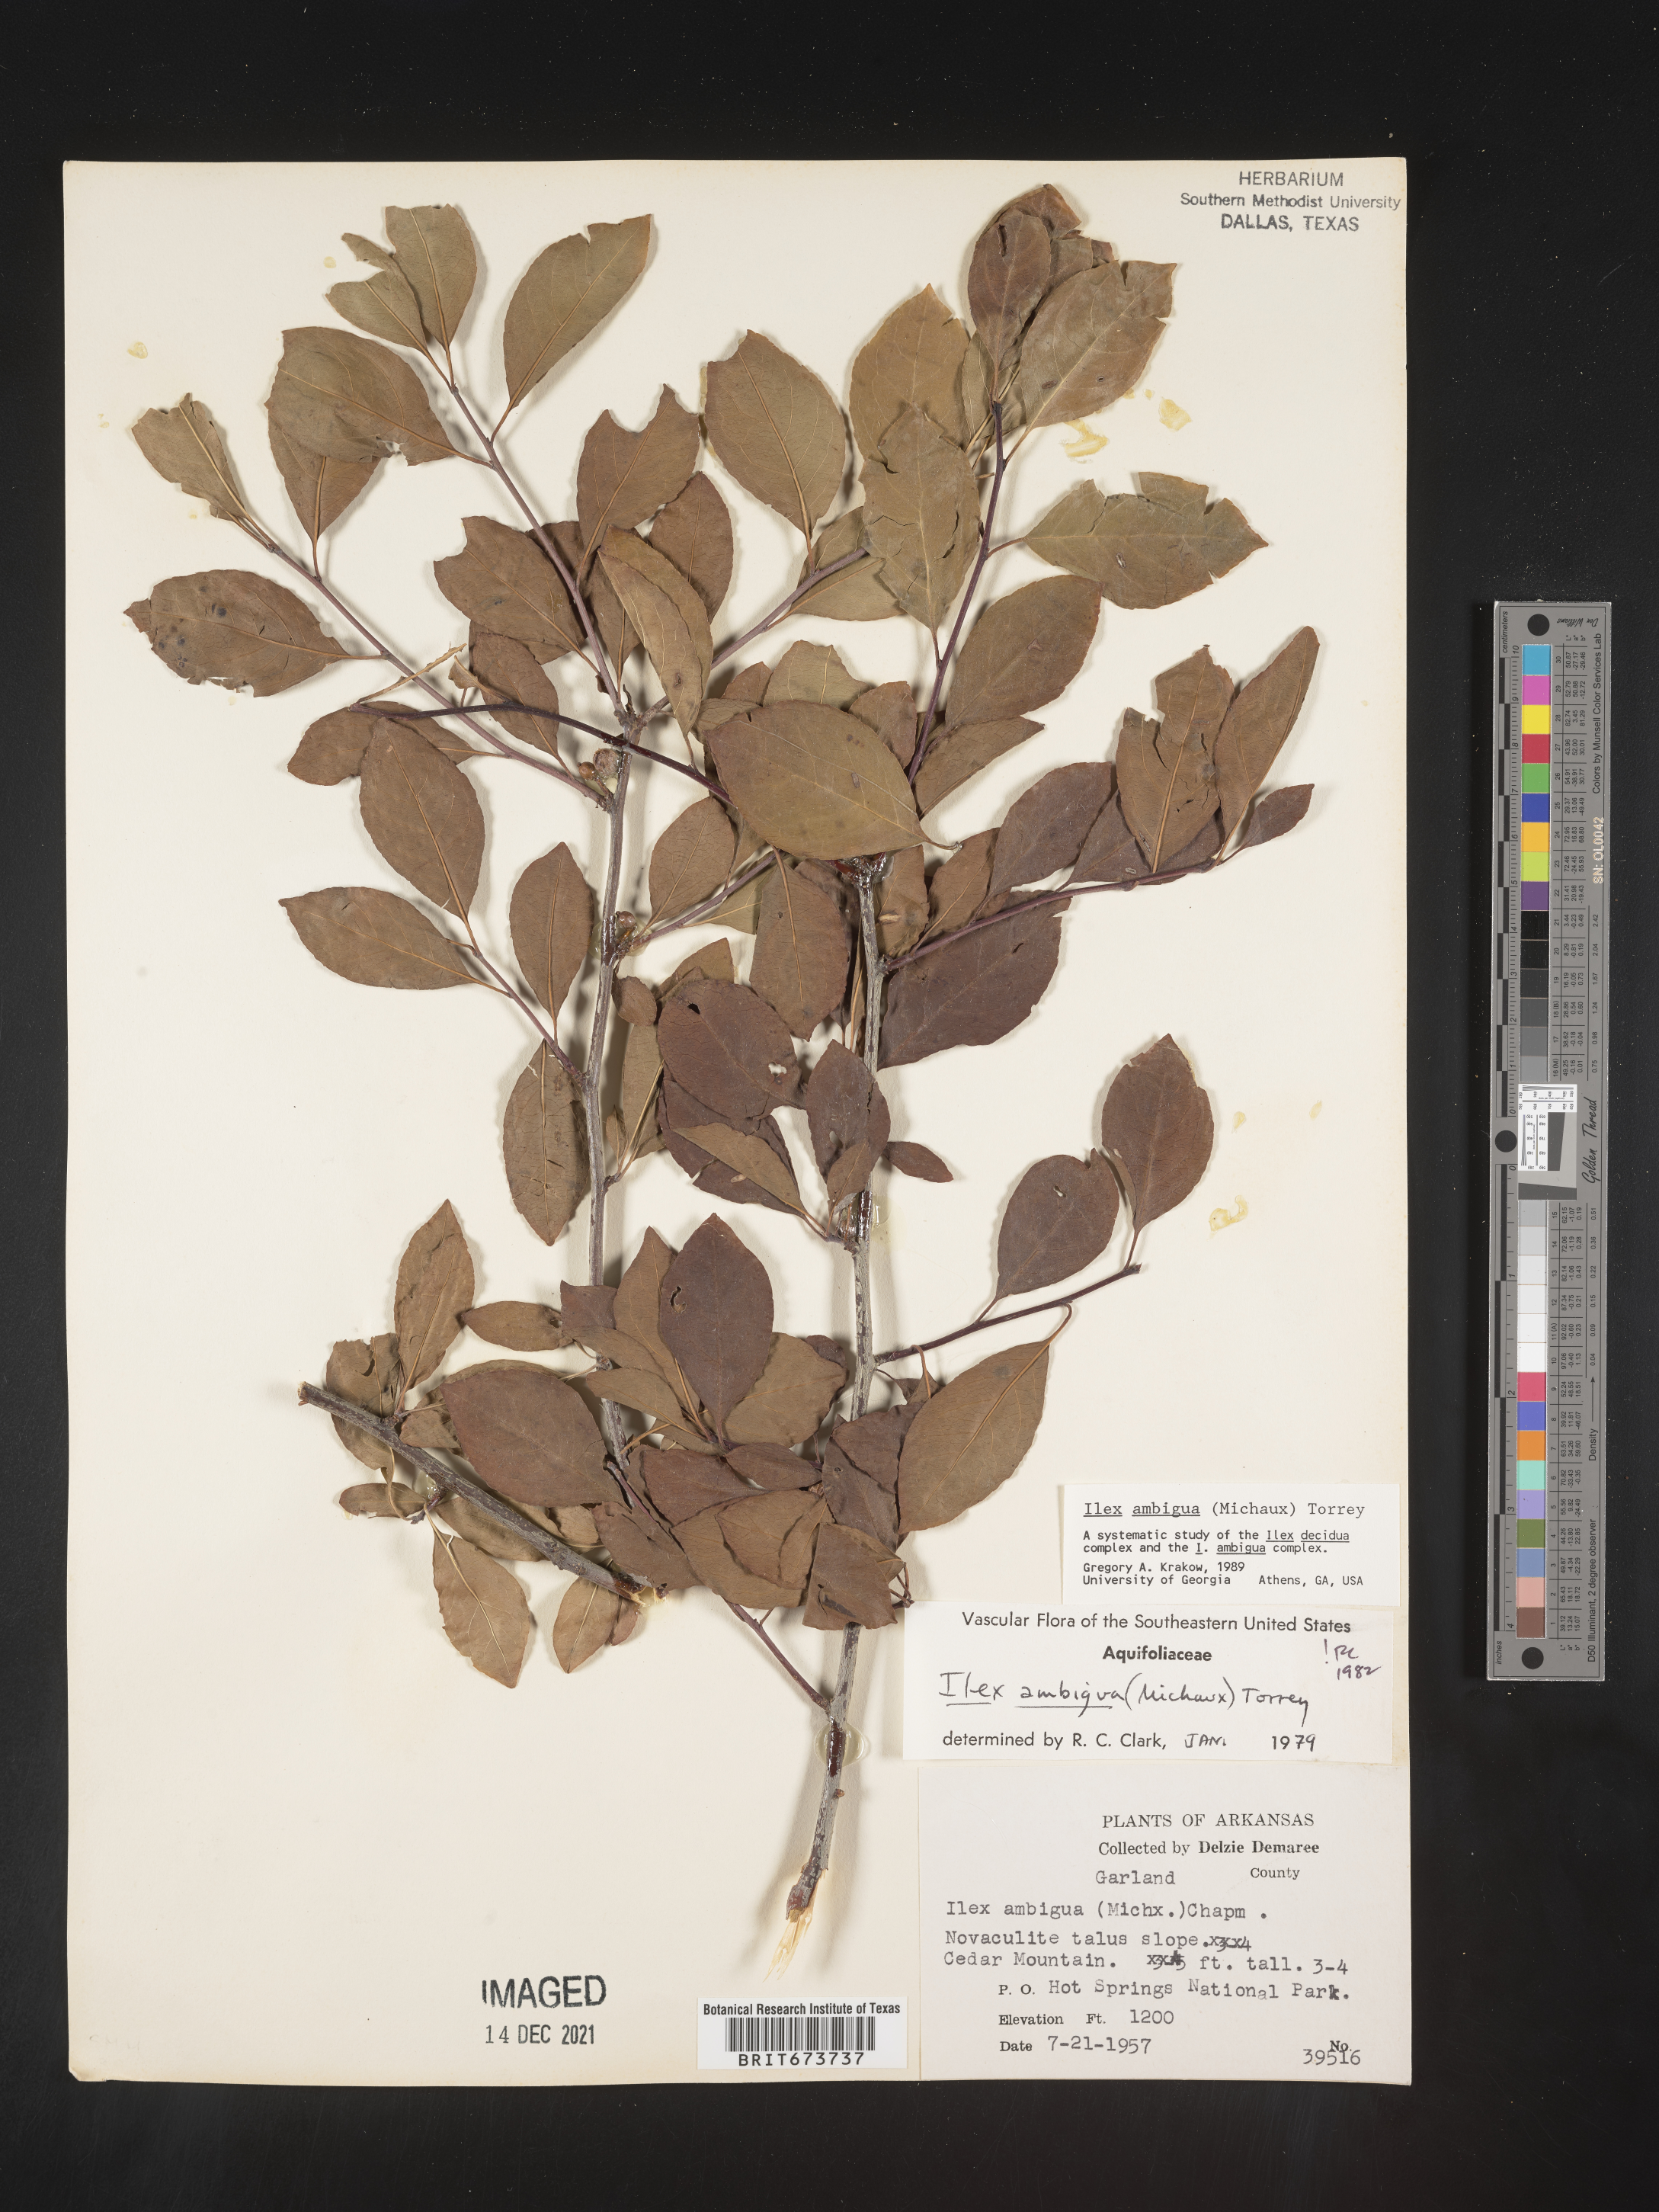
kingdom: Plantae
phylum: Tracheophyta
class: Magnoliopsida
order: Aquifoliales
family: Aquifoliaceae
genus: Ilex
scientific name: Ilex ambigua
